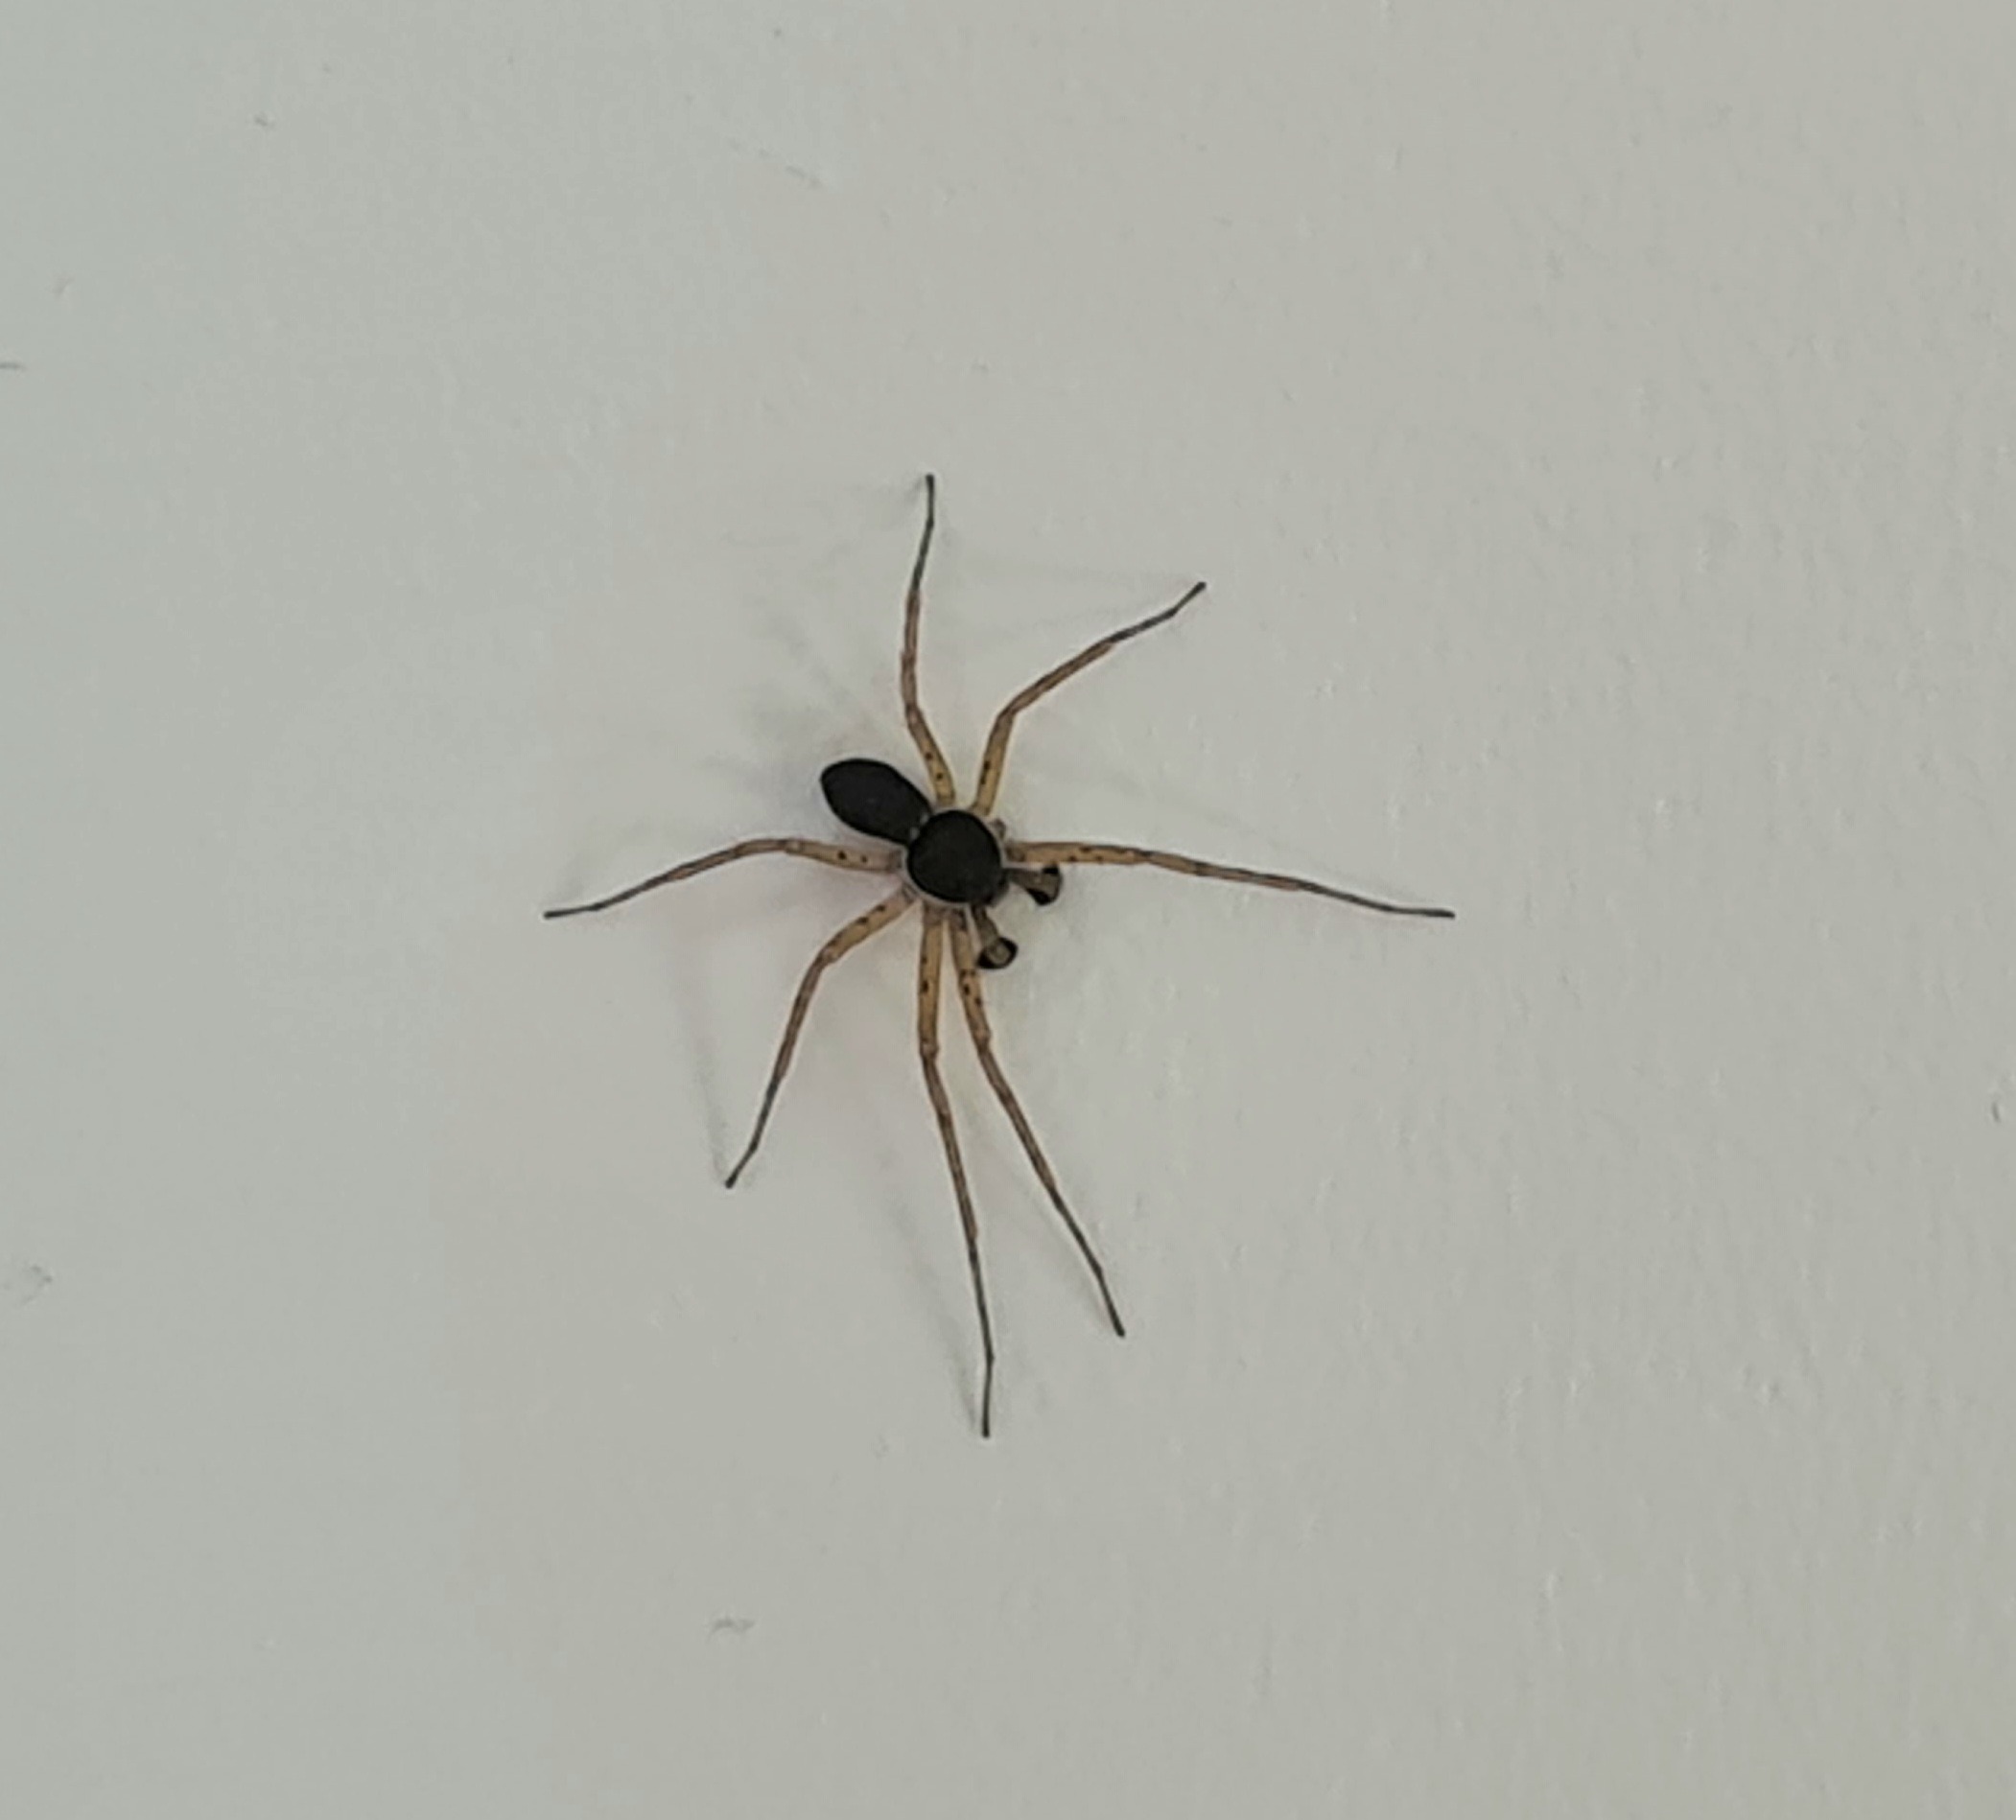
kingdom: Animalia
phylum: Arthropoda
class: Arachnida
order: Araneae
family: Philodromidae
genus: Philodromus
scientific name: Philodromus dispar
